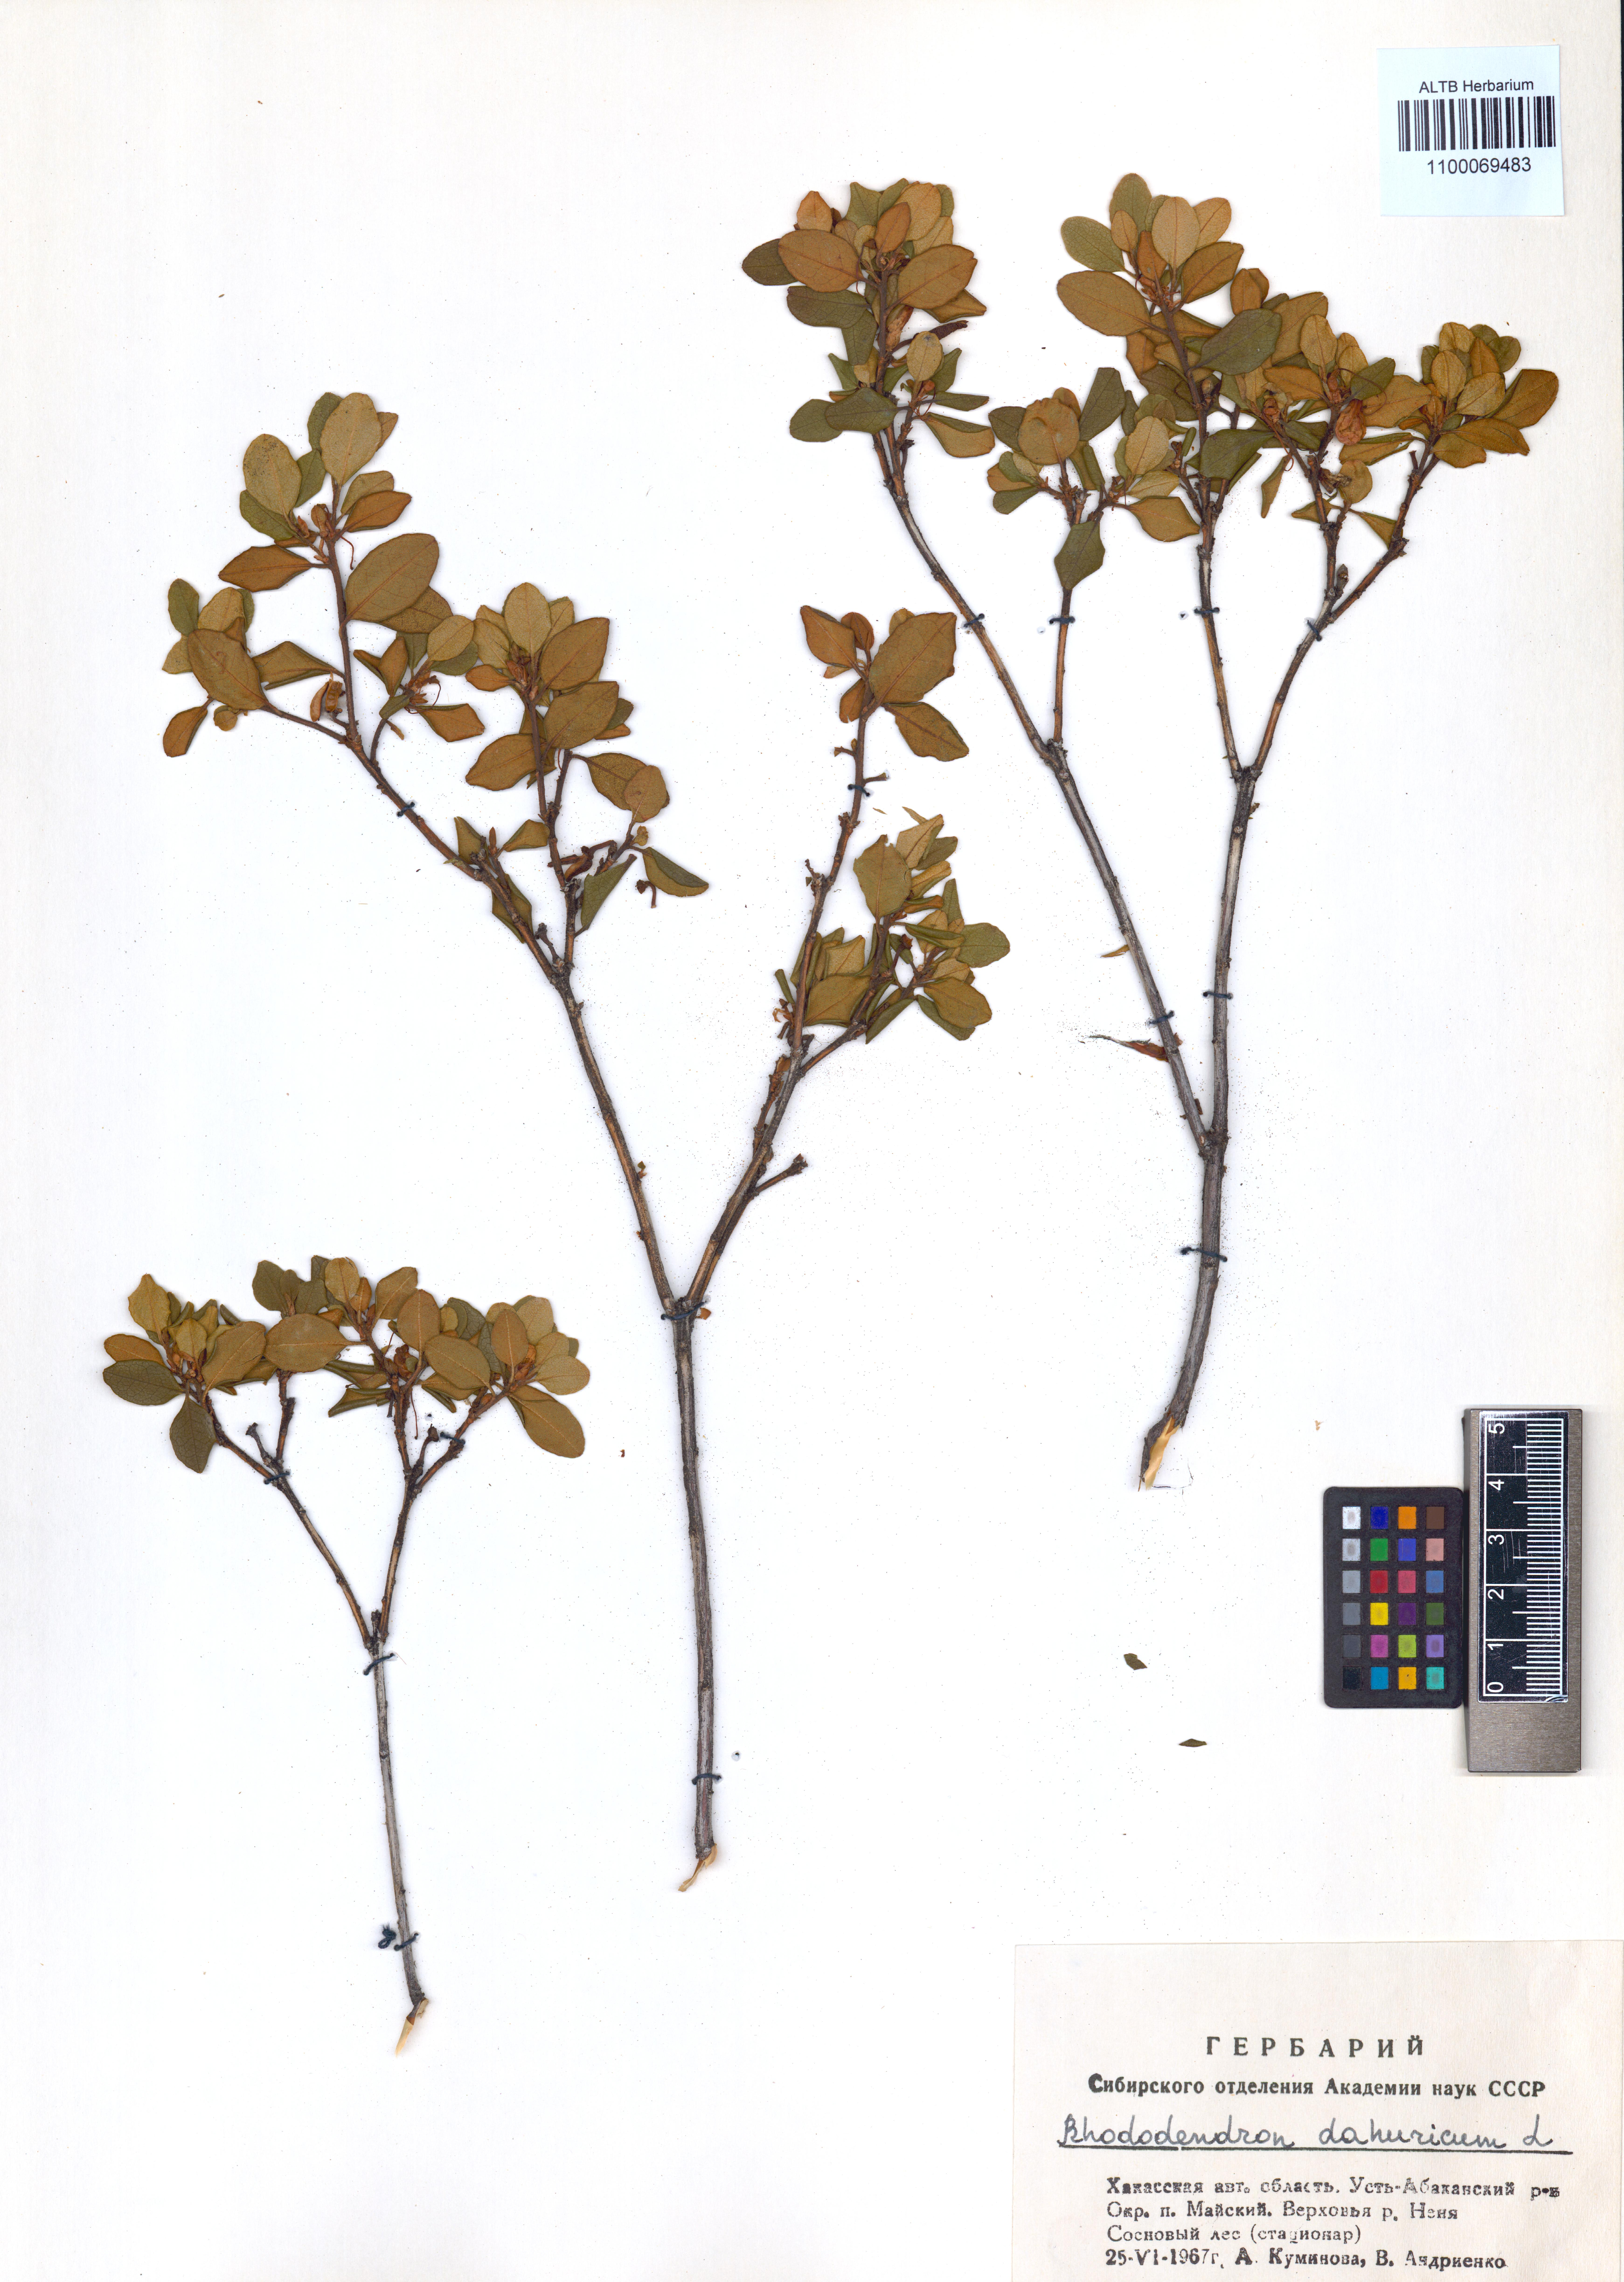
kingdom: Plantae
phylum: Tracheophyta
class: Magnoliopsida
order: Ericales
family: Ericaceae
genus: Rhododendron
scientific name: Rhododendron dauricum
